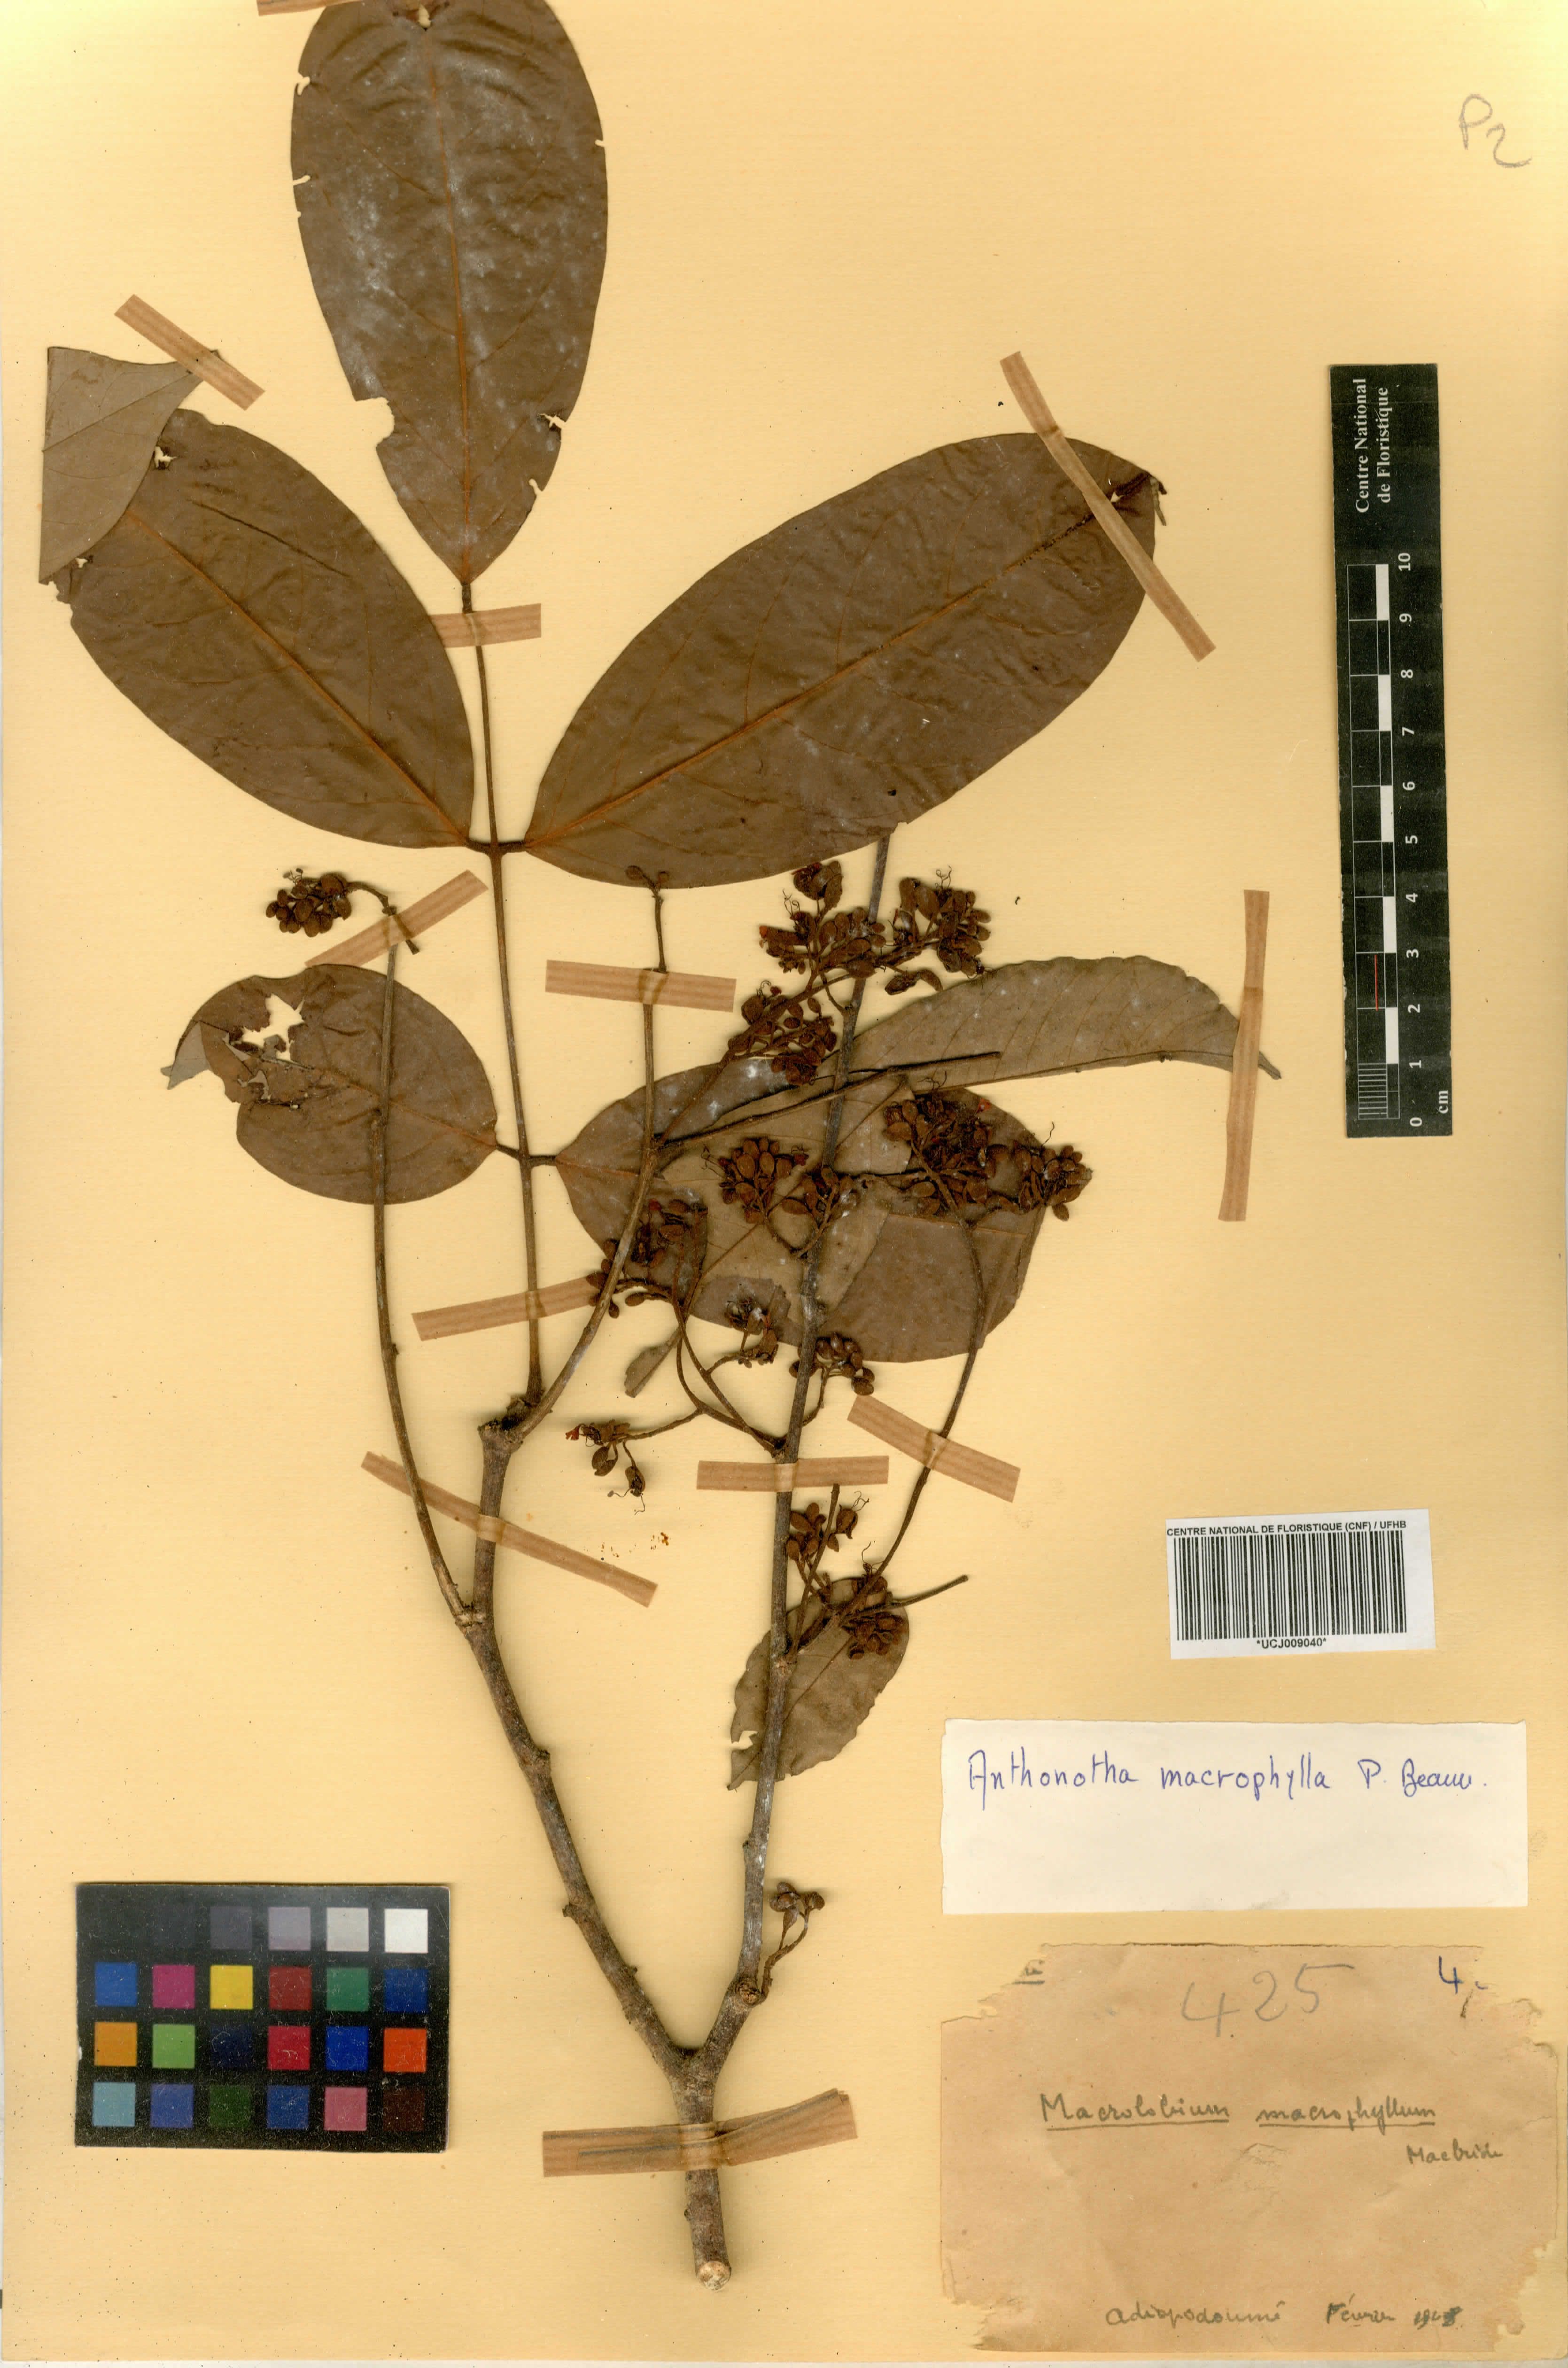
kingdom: Plantae
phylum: Tracheophyta
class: Magnoliopsida
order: Fabales
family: Fabaceae
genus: Anthonotha
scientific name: Anthonotha macrophylla
